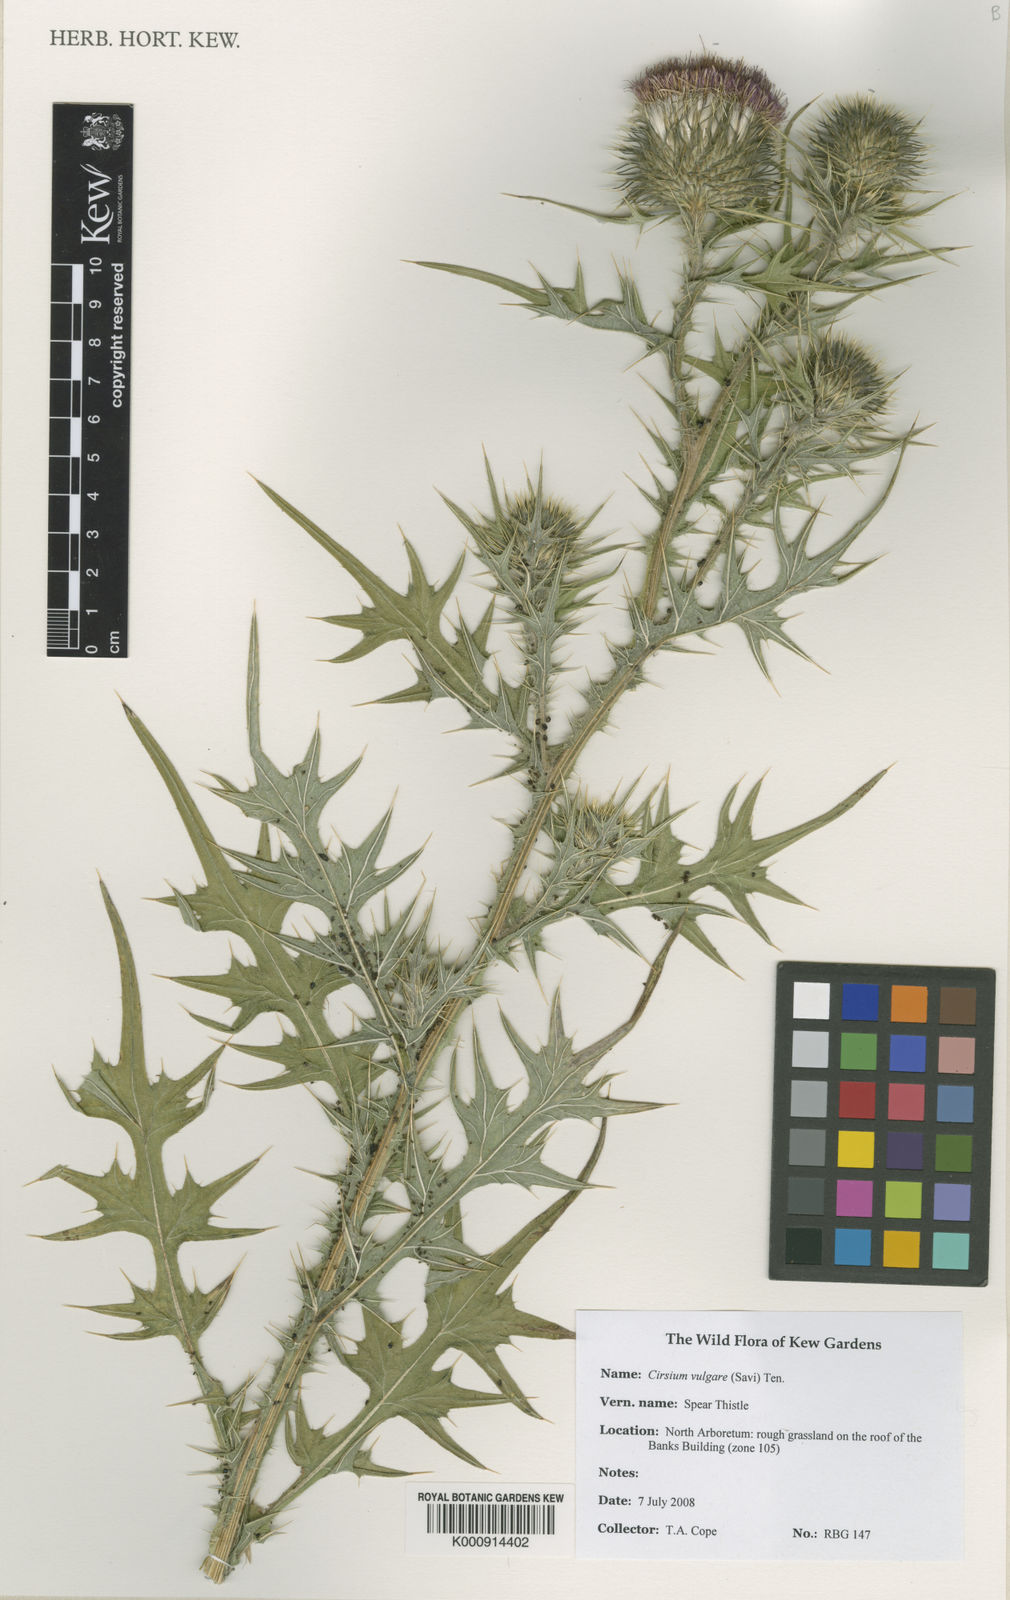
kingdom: Plantae
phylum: Tracheophyta
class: Magnoliopsida
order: Asterales
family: Asteraceae
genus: Cirsium
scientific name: Cirsium vulgare
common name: Bull thistle
